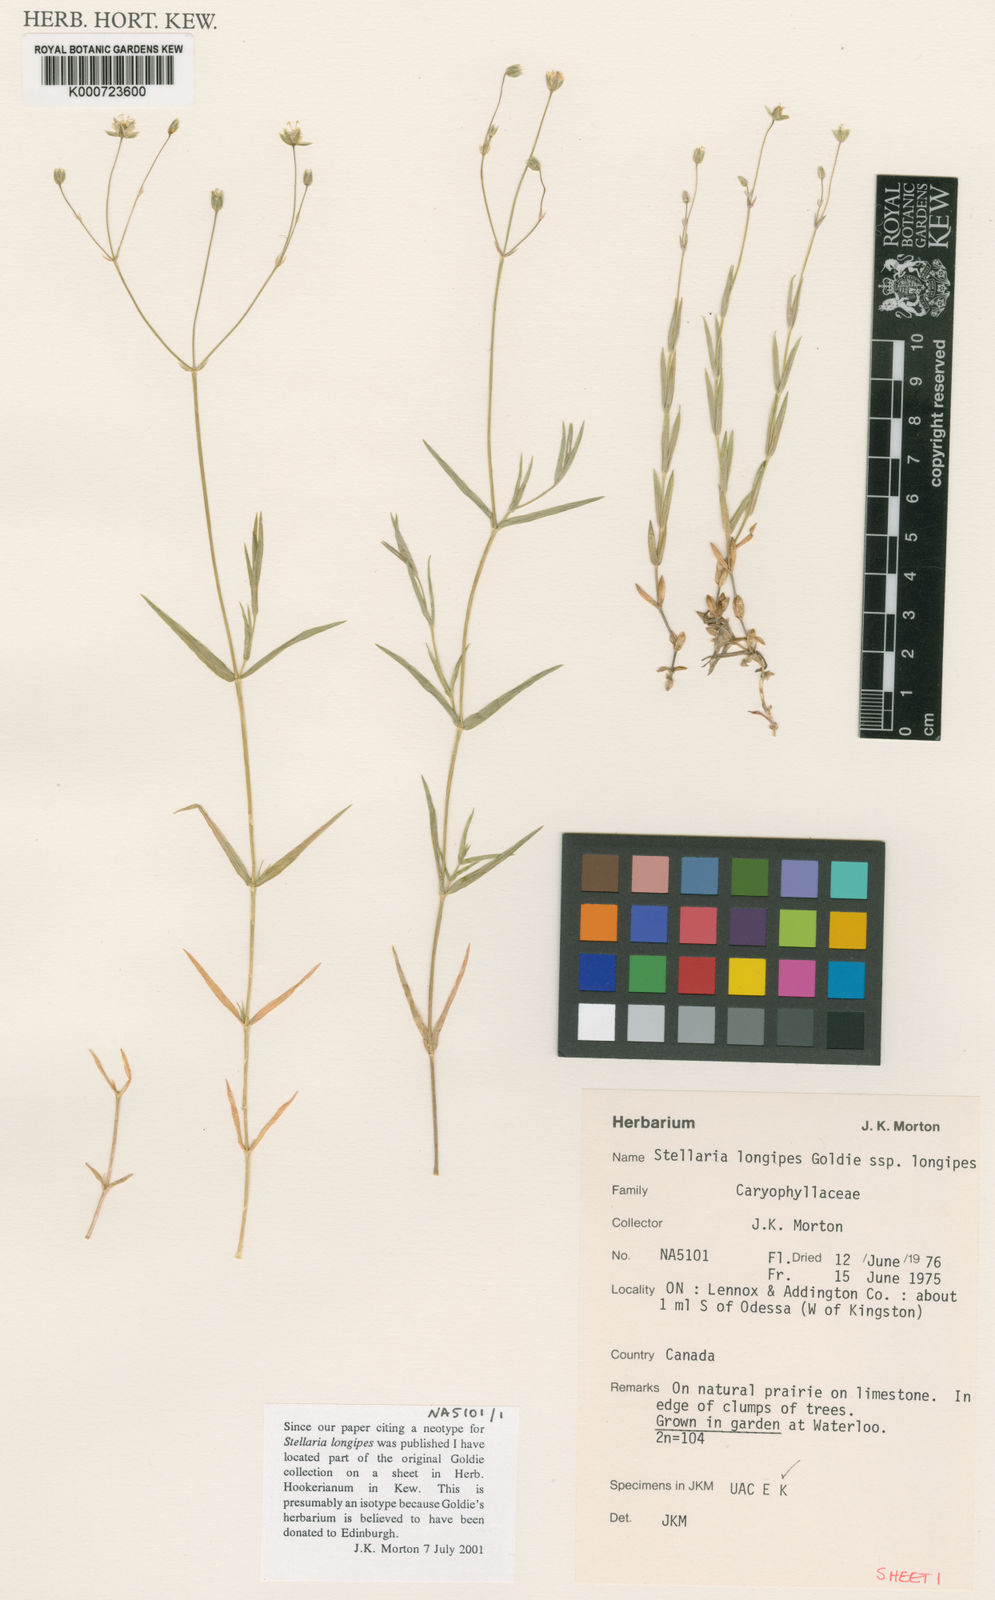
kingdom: Plantae
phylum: Tracheophyta
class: Magnoliopsida
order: Caryophyllales
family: Caryophyllaceae
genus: Stellaria
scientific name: Stellaria longipes
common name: Goldie's starwort
